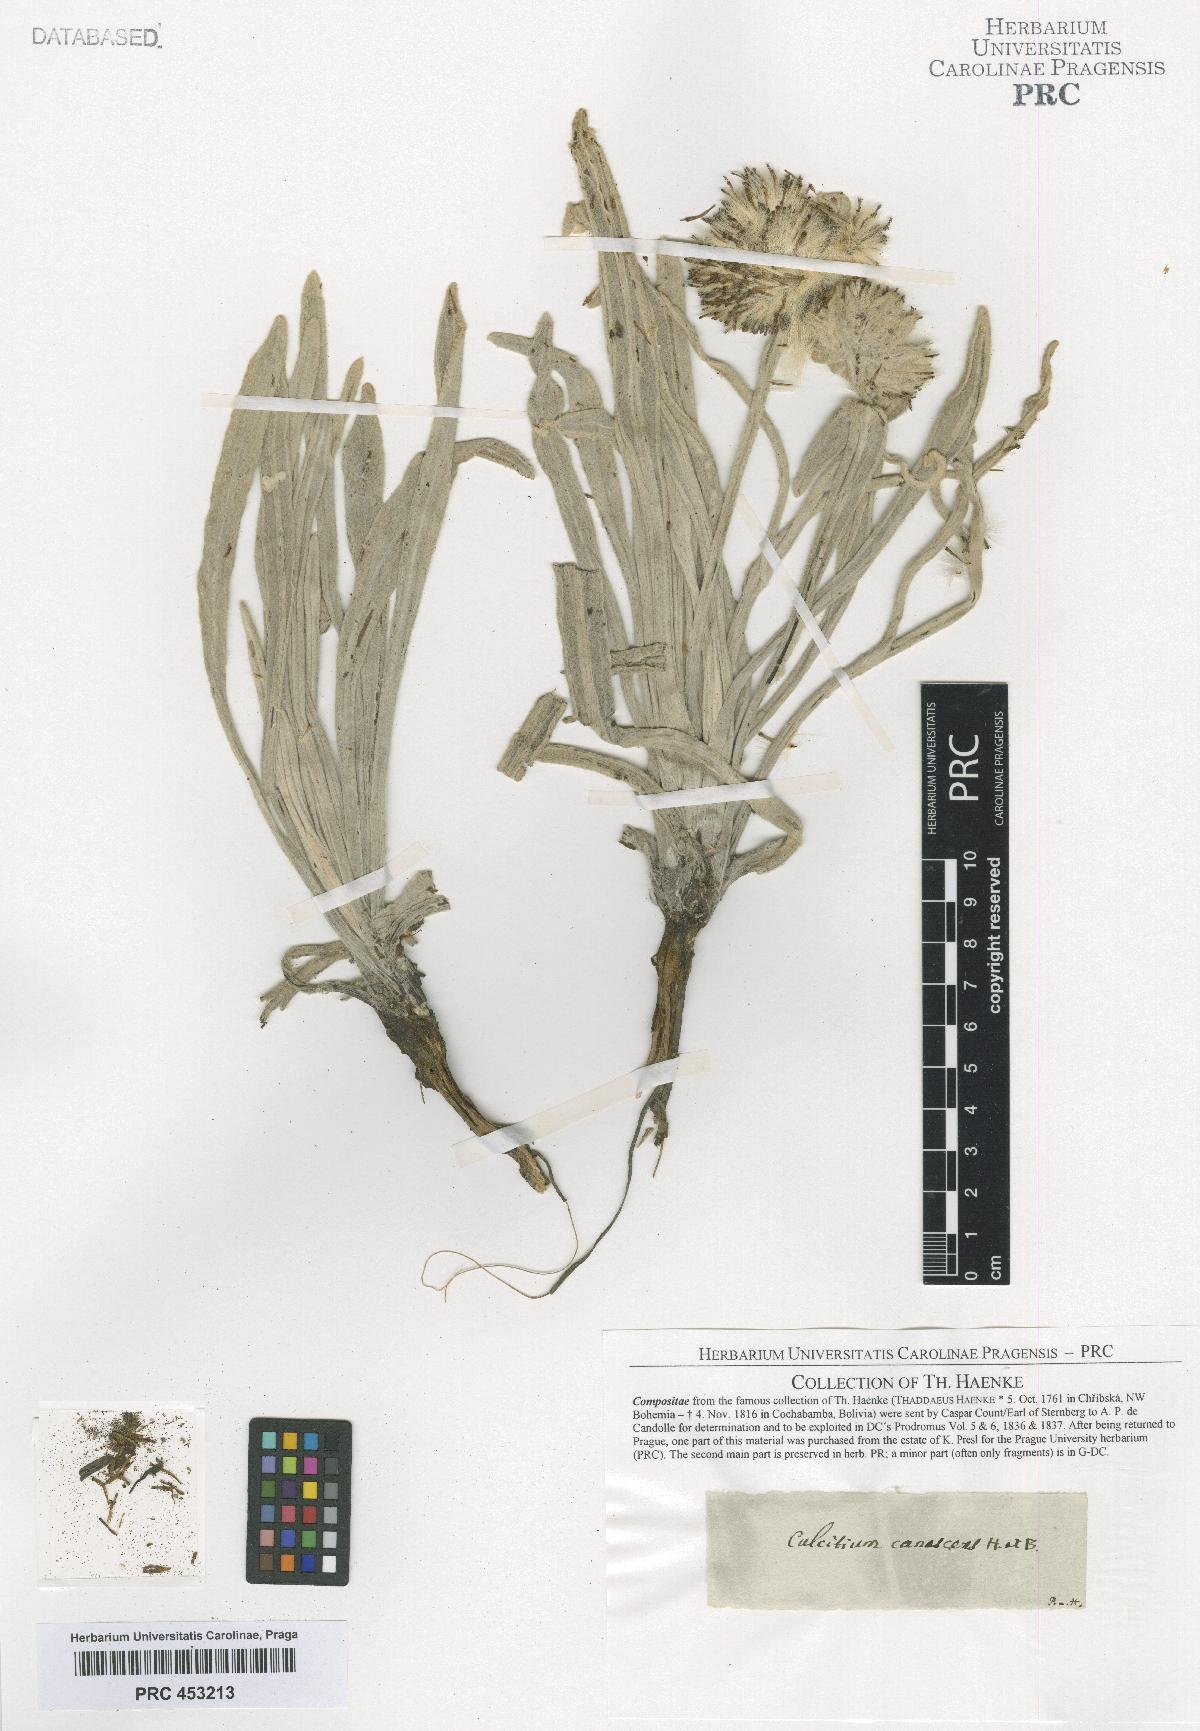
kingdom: Plantae
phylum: Tracheophyta
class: Magnoliopsida
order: Asterales
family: Asteraceae
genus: Culcitium
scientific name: Culcitium canescens
